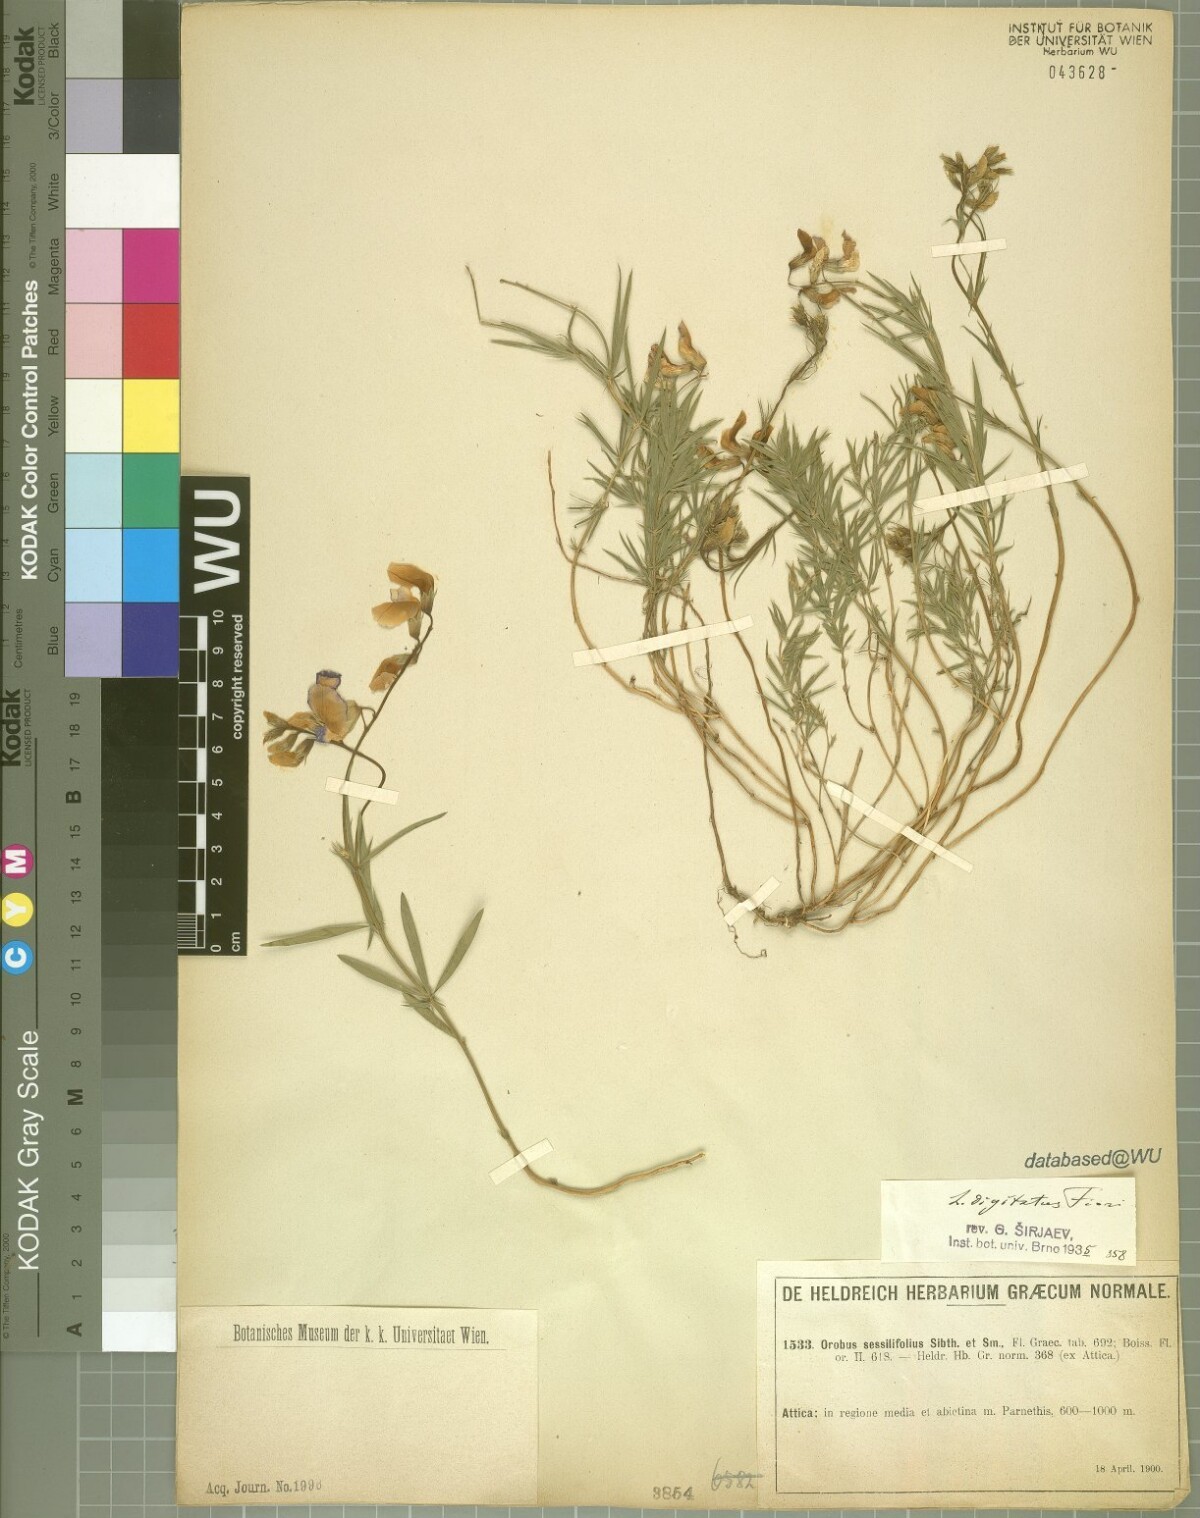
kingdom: Plantae
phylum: Tracheophyta
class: Magnoliopsida
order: Fabales
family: Fabaceae
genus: Lathyrus
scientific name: Lathyrus digitatus
